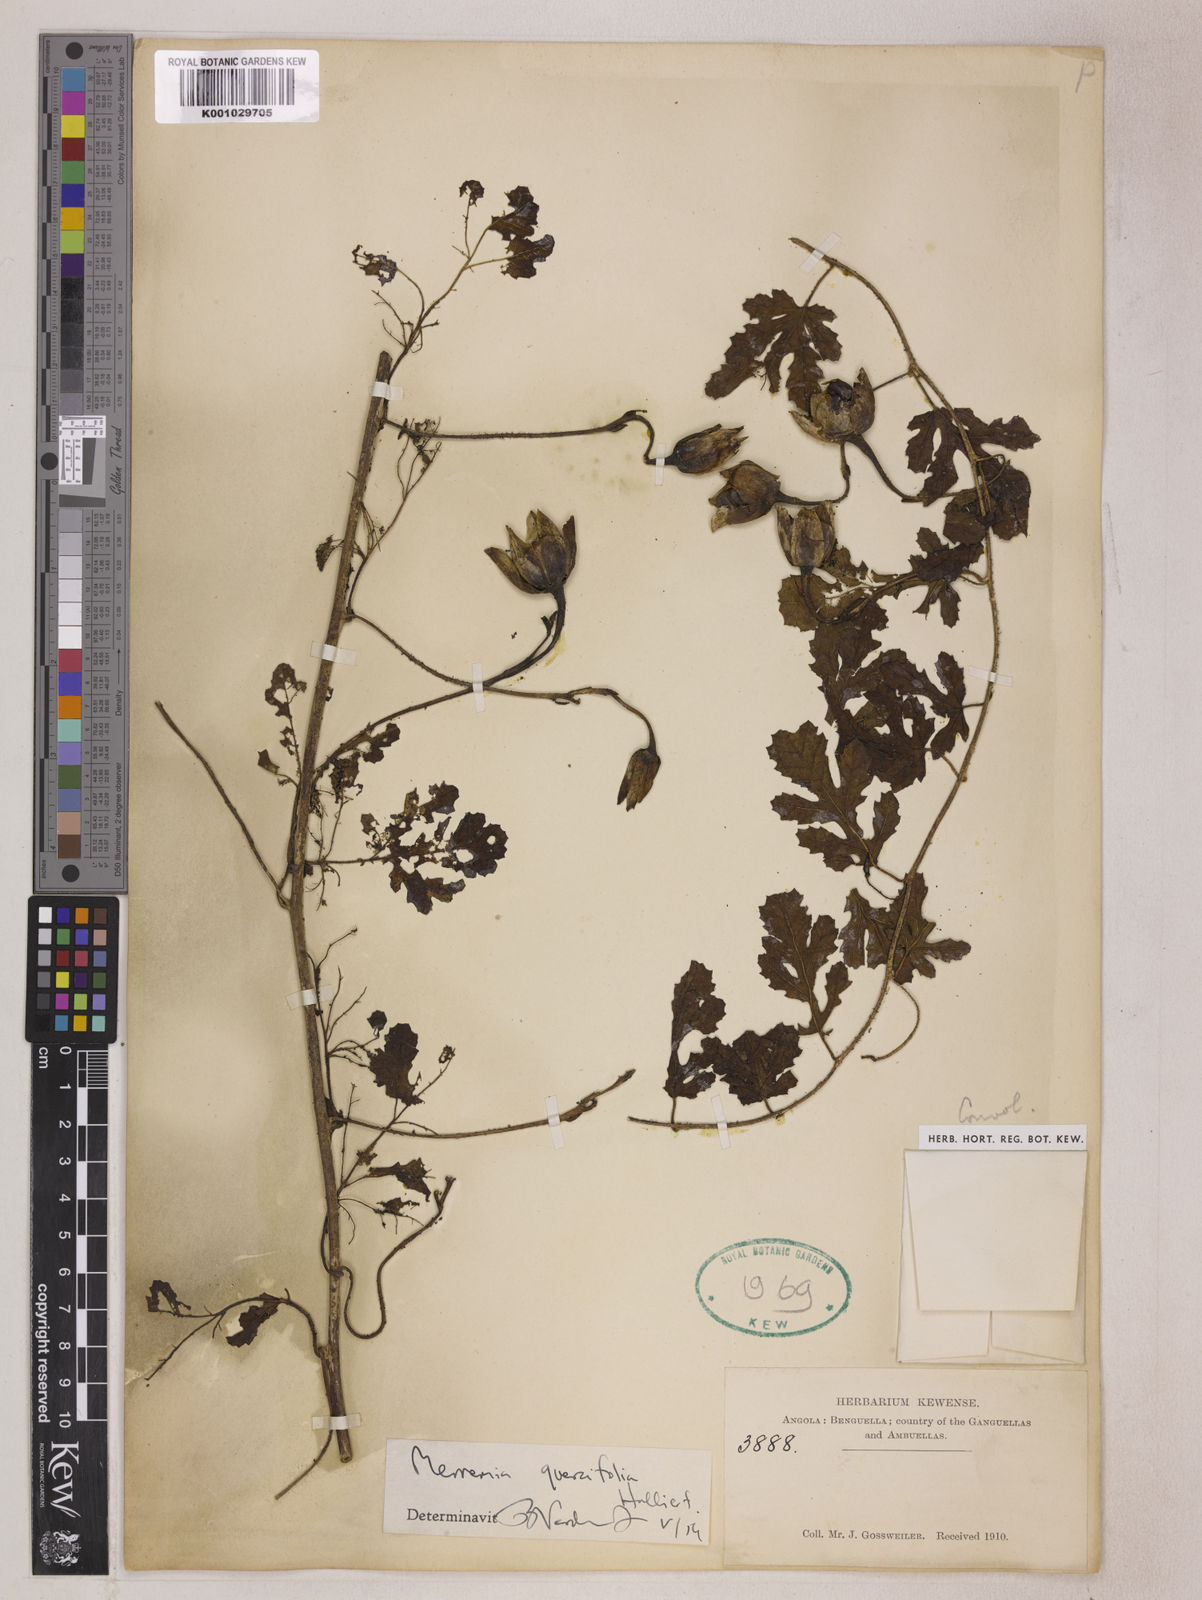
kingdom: Plantae
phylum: Tracheophyta
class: Magnoliopsida
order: Solanales
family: Convolvulaceae
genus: Distimake
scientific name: Distimake quercifolius
